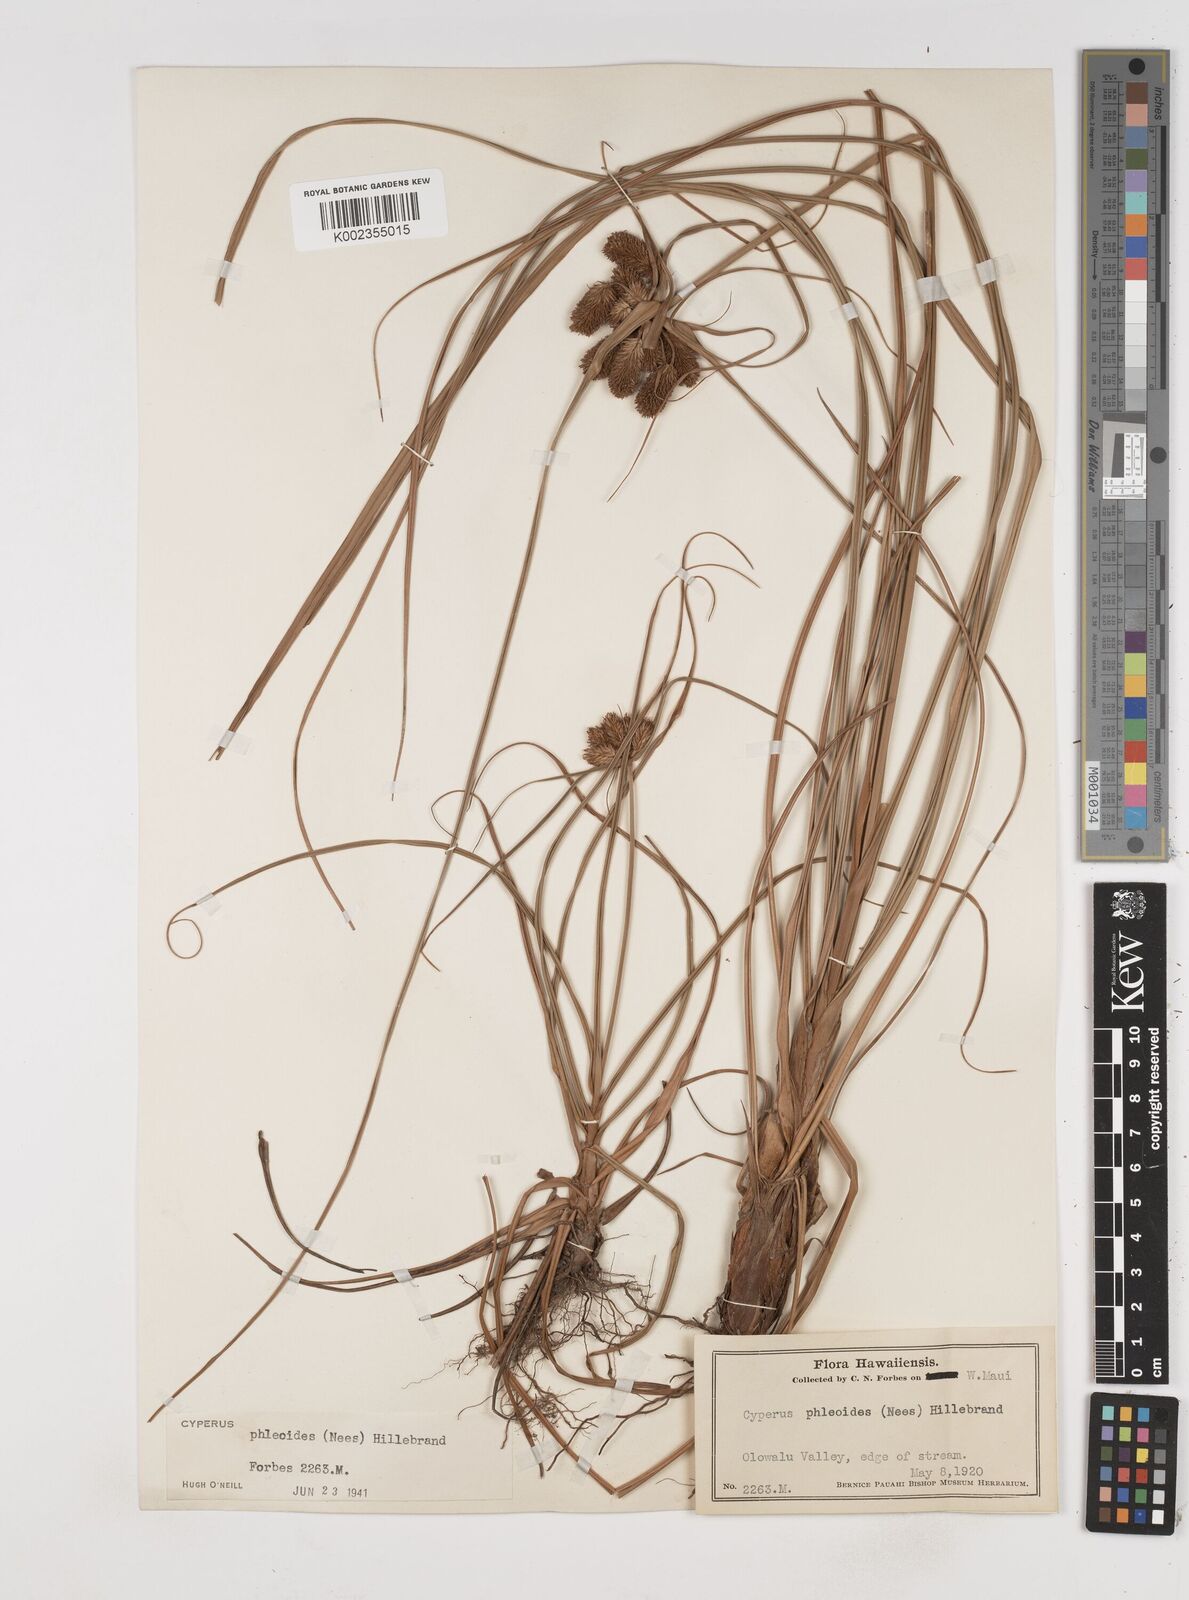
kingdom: Plantae
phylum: Tracheophyta
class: Liliopsida
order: Poales
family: Cyperaceae
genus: Cyperus
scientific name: Cyperus phleoides
